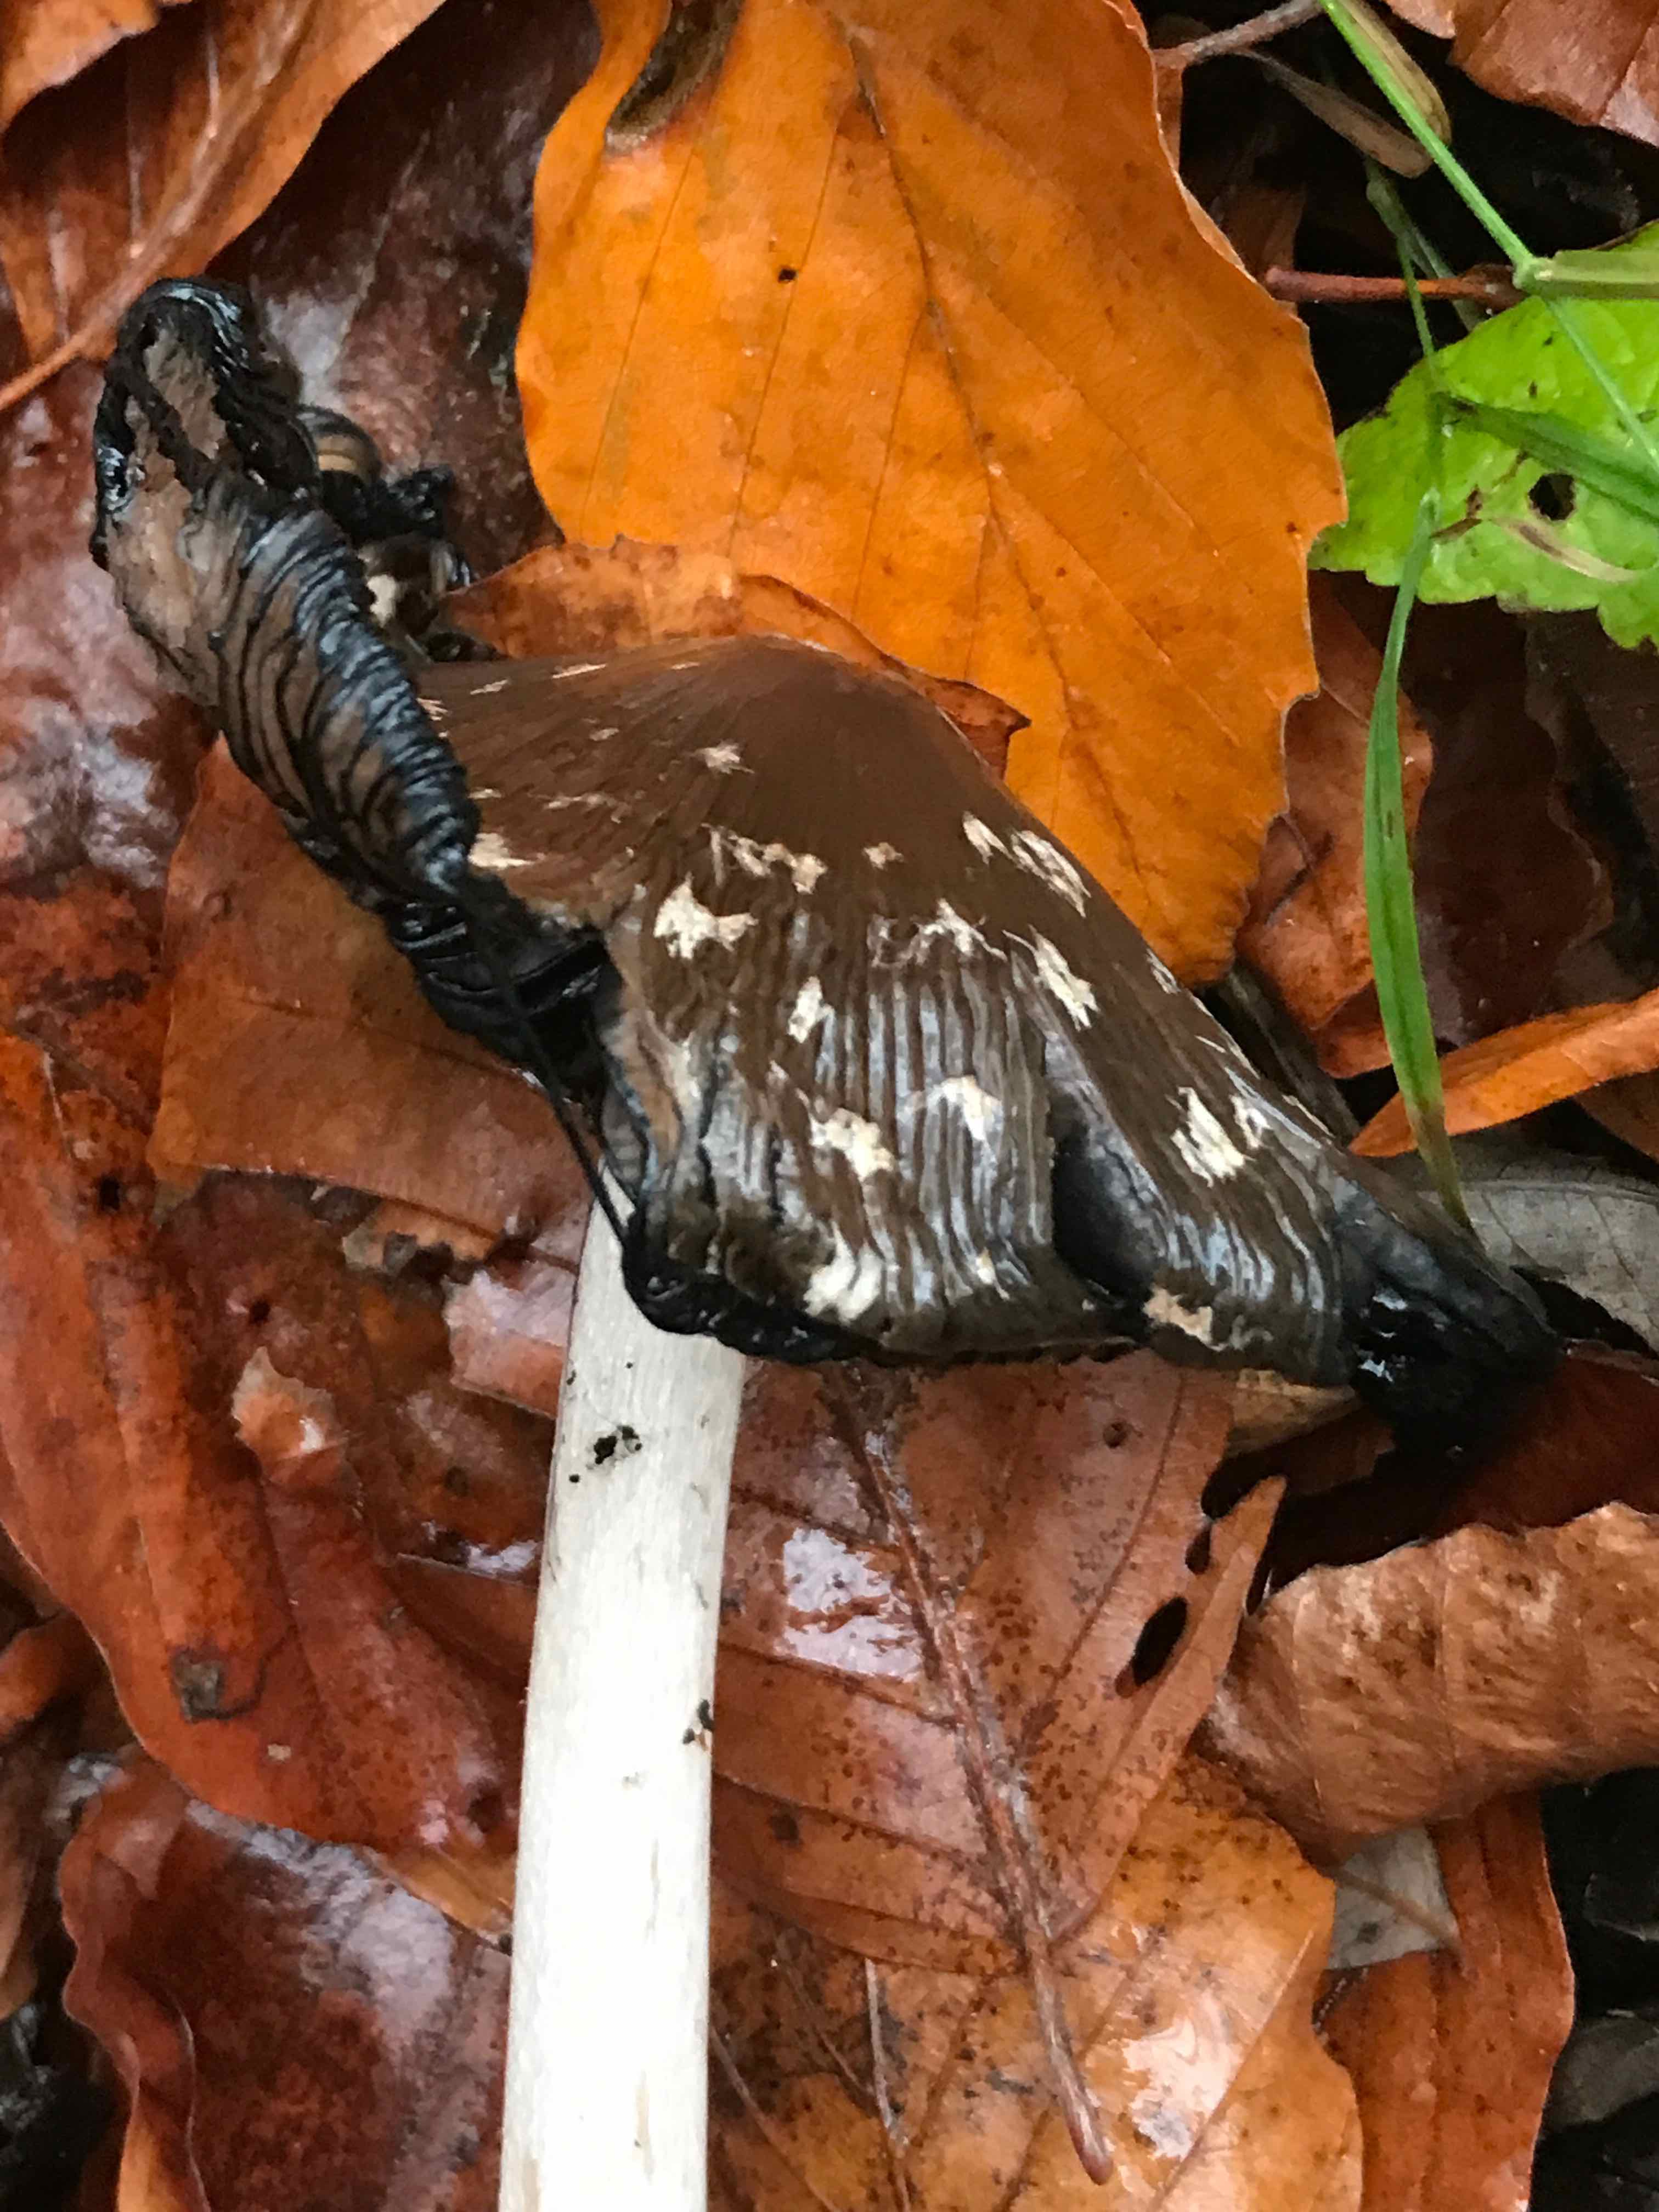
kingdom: Fungi
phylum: Basidiomycota
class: Agaricomycetes
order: Agaricales
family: Psathyrellaceae
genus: Coprinopsis
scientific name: Coprinopsis picacea
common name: skade-blækhat
